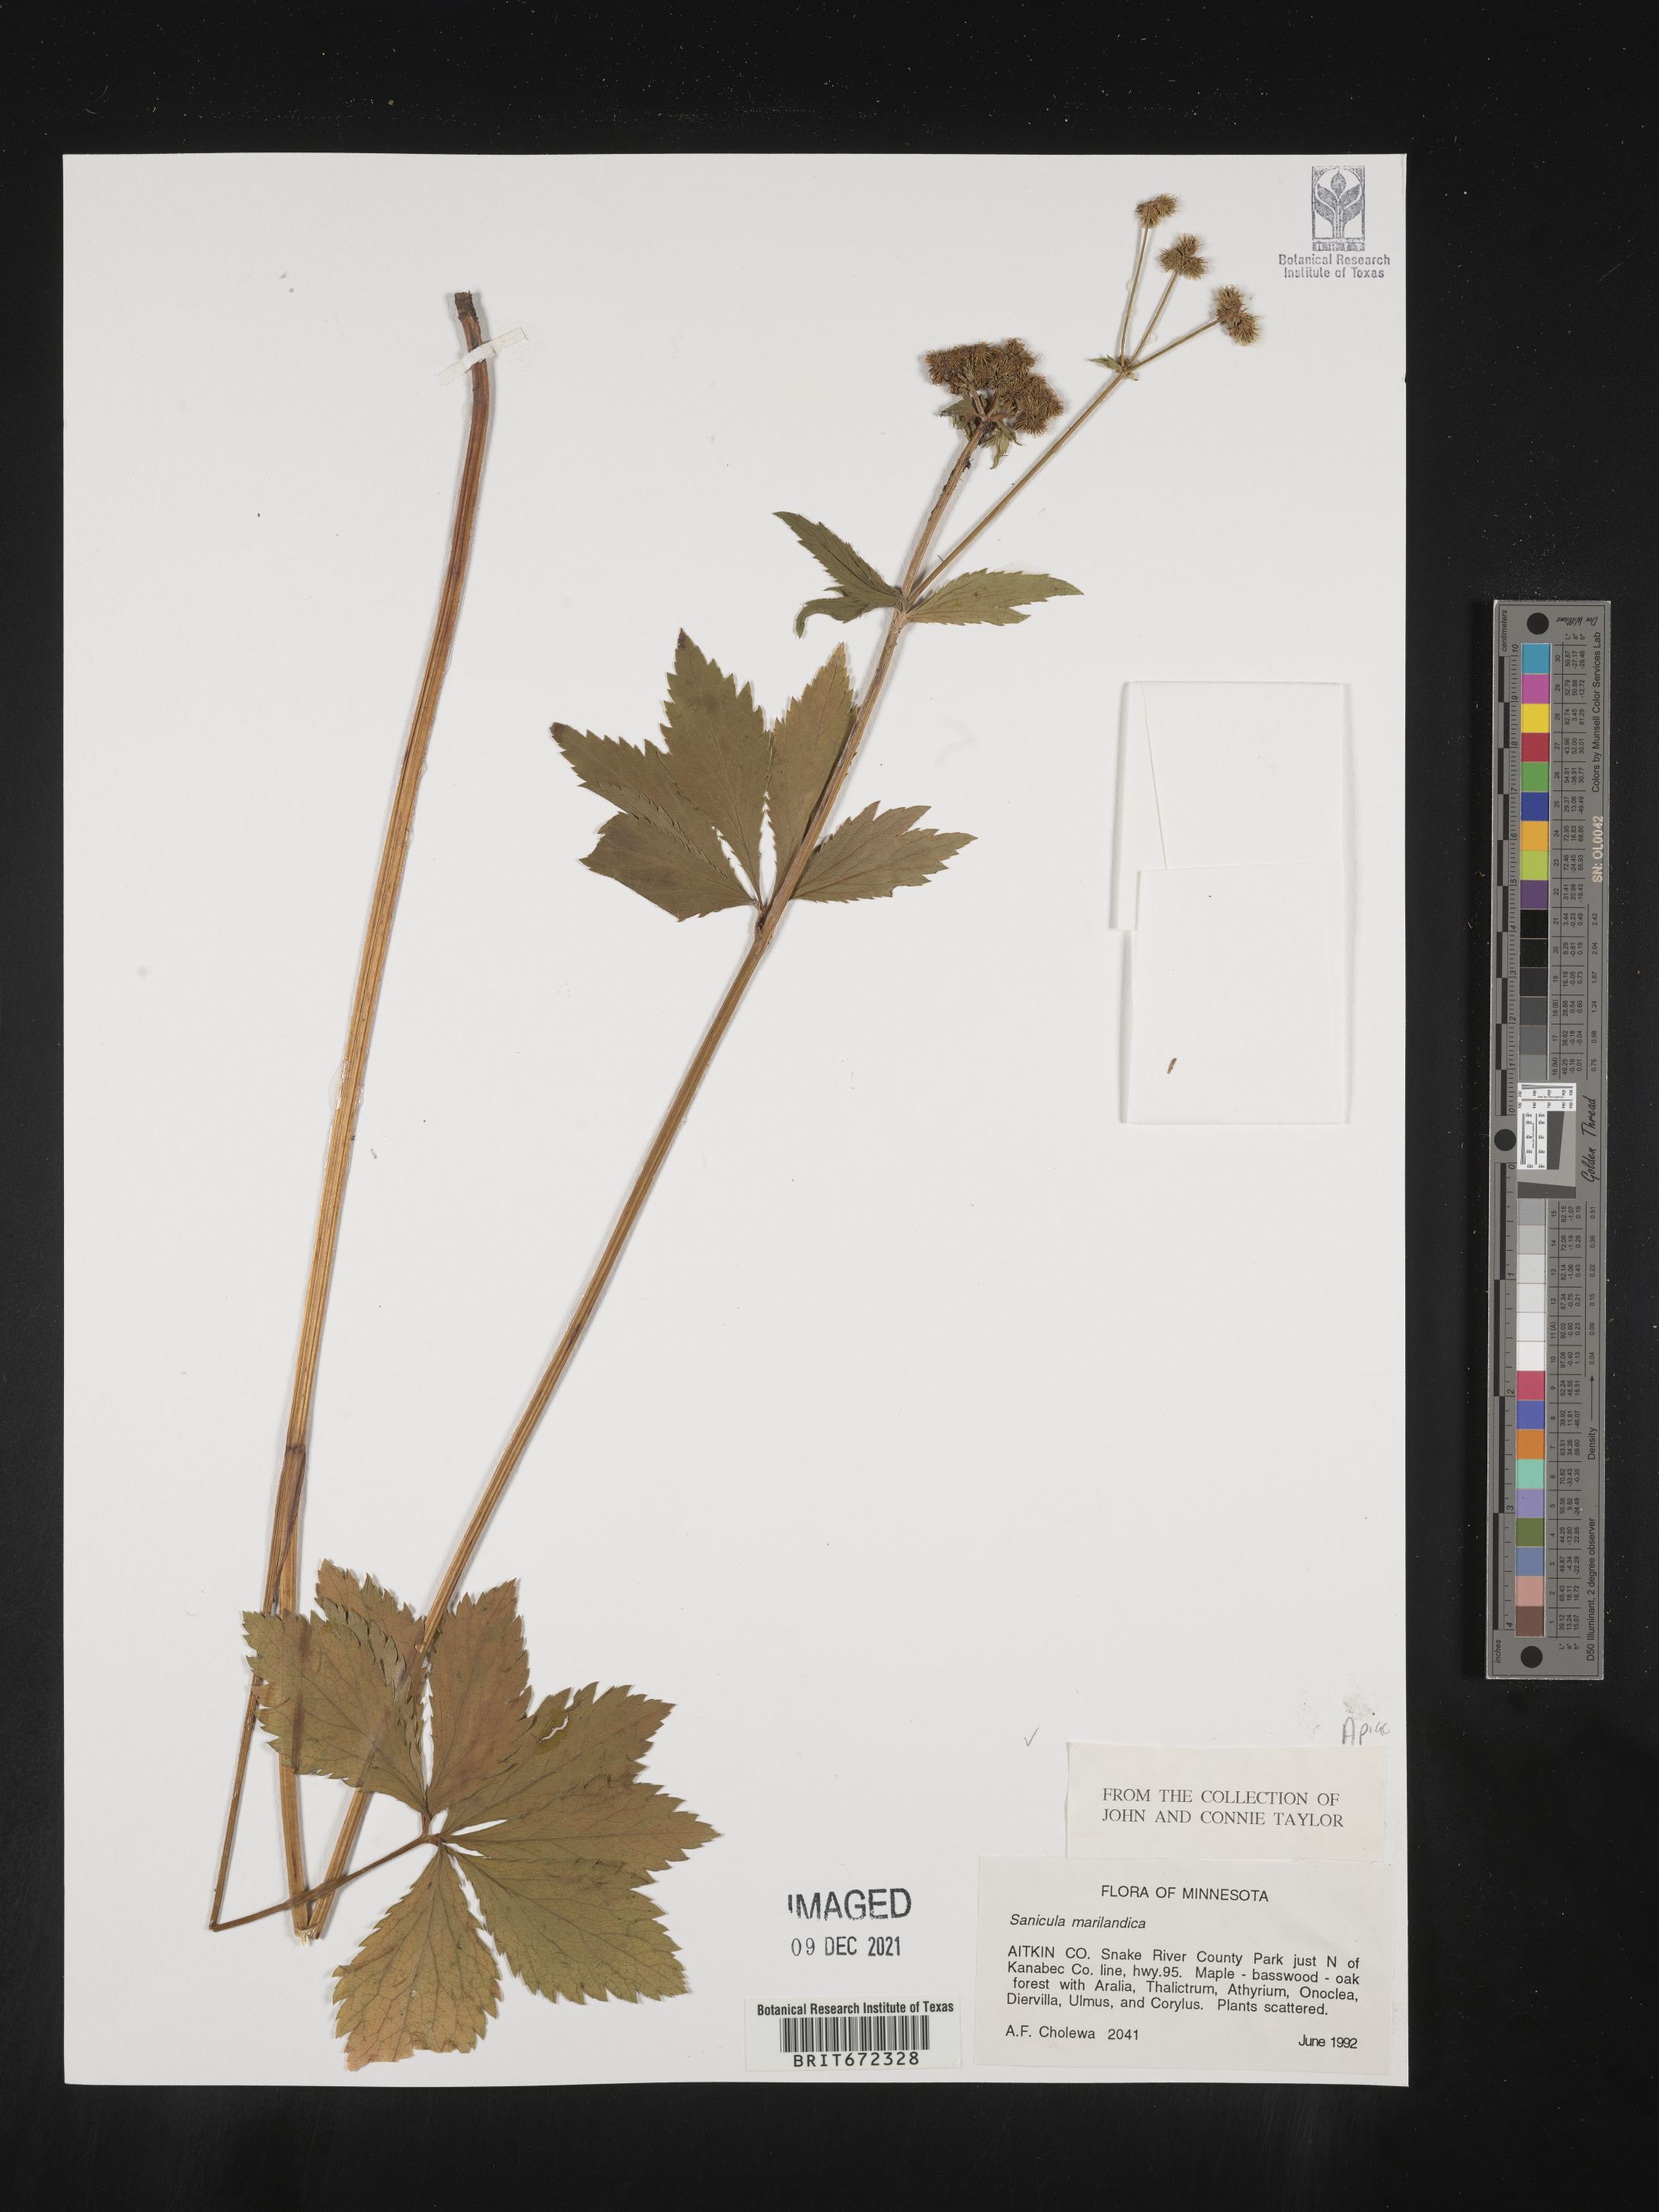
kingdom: Plantae
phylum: Tracheophyta
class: Magnoliopsida
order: Apiales
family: Apiaceae
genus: Sanicula
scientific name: Sanicula marilandica
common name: Black snakeroot
